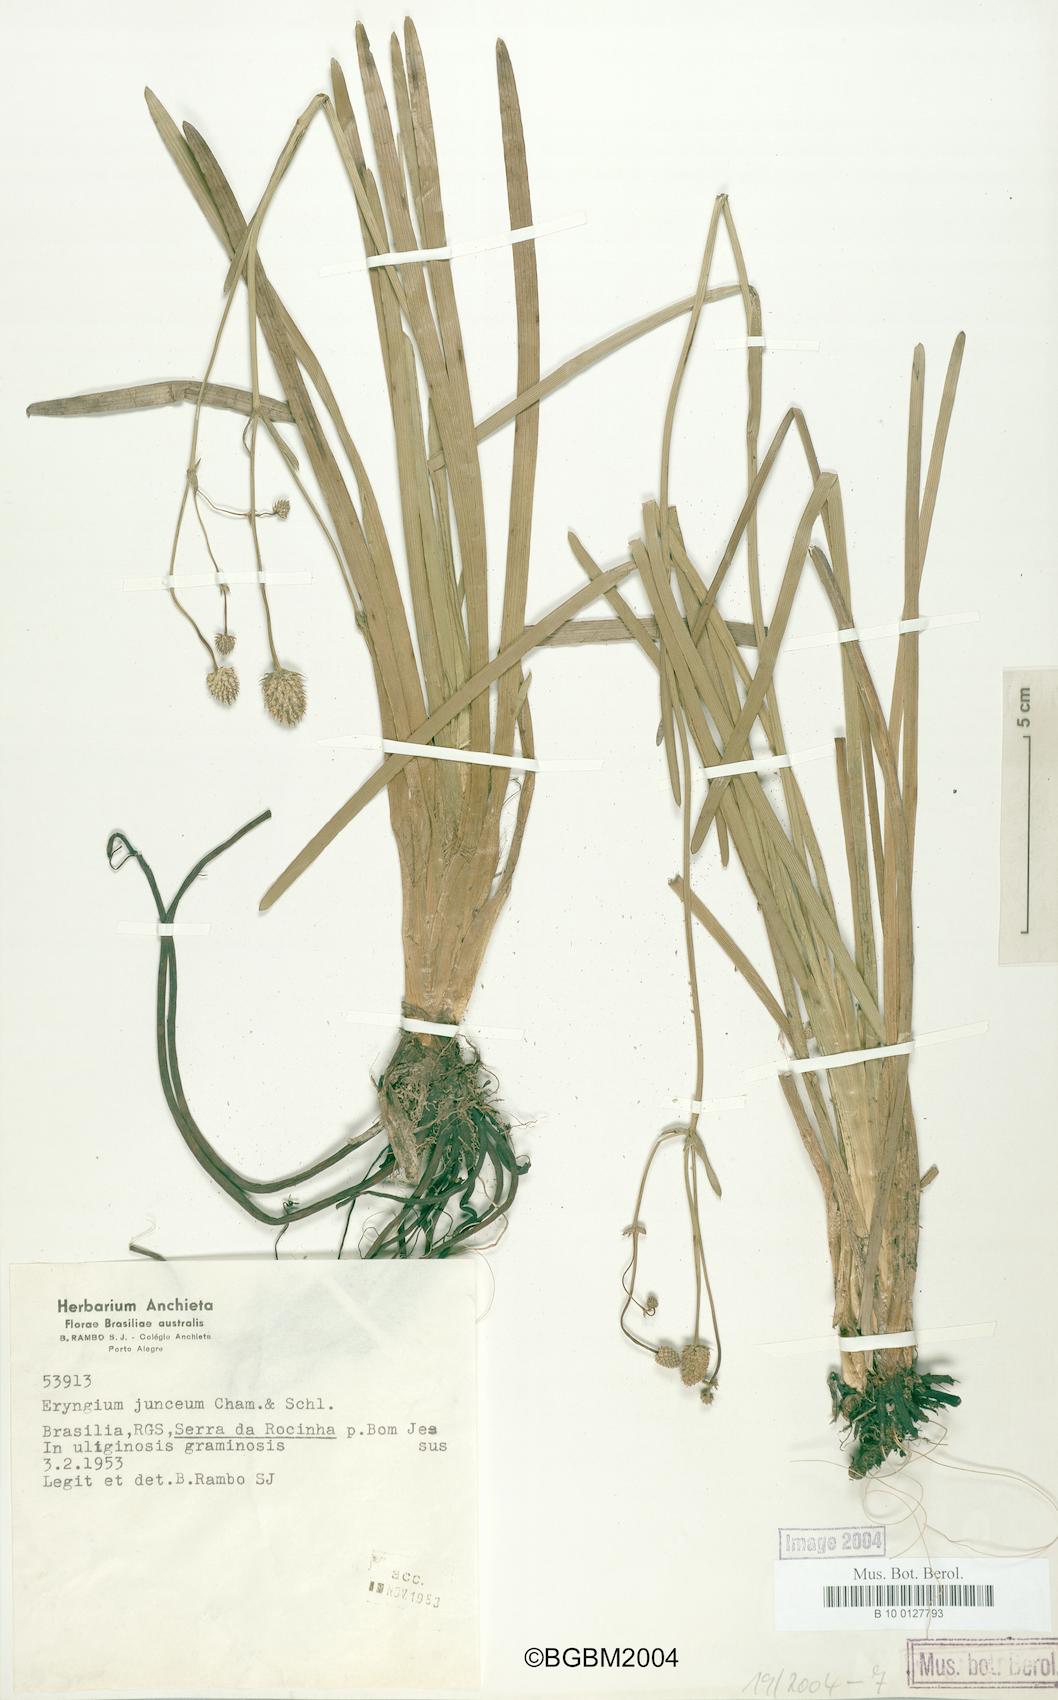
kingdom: Plantae
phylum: Tracheophyta
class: Magnoliopsida
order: Apiales
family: Apiaceae
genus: Eryngium
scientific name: Eryngium junceum
